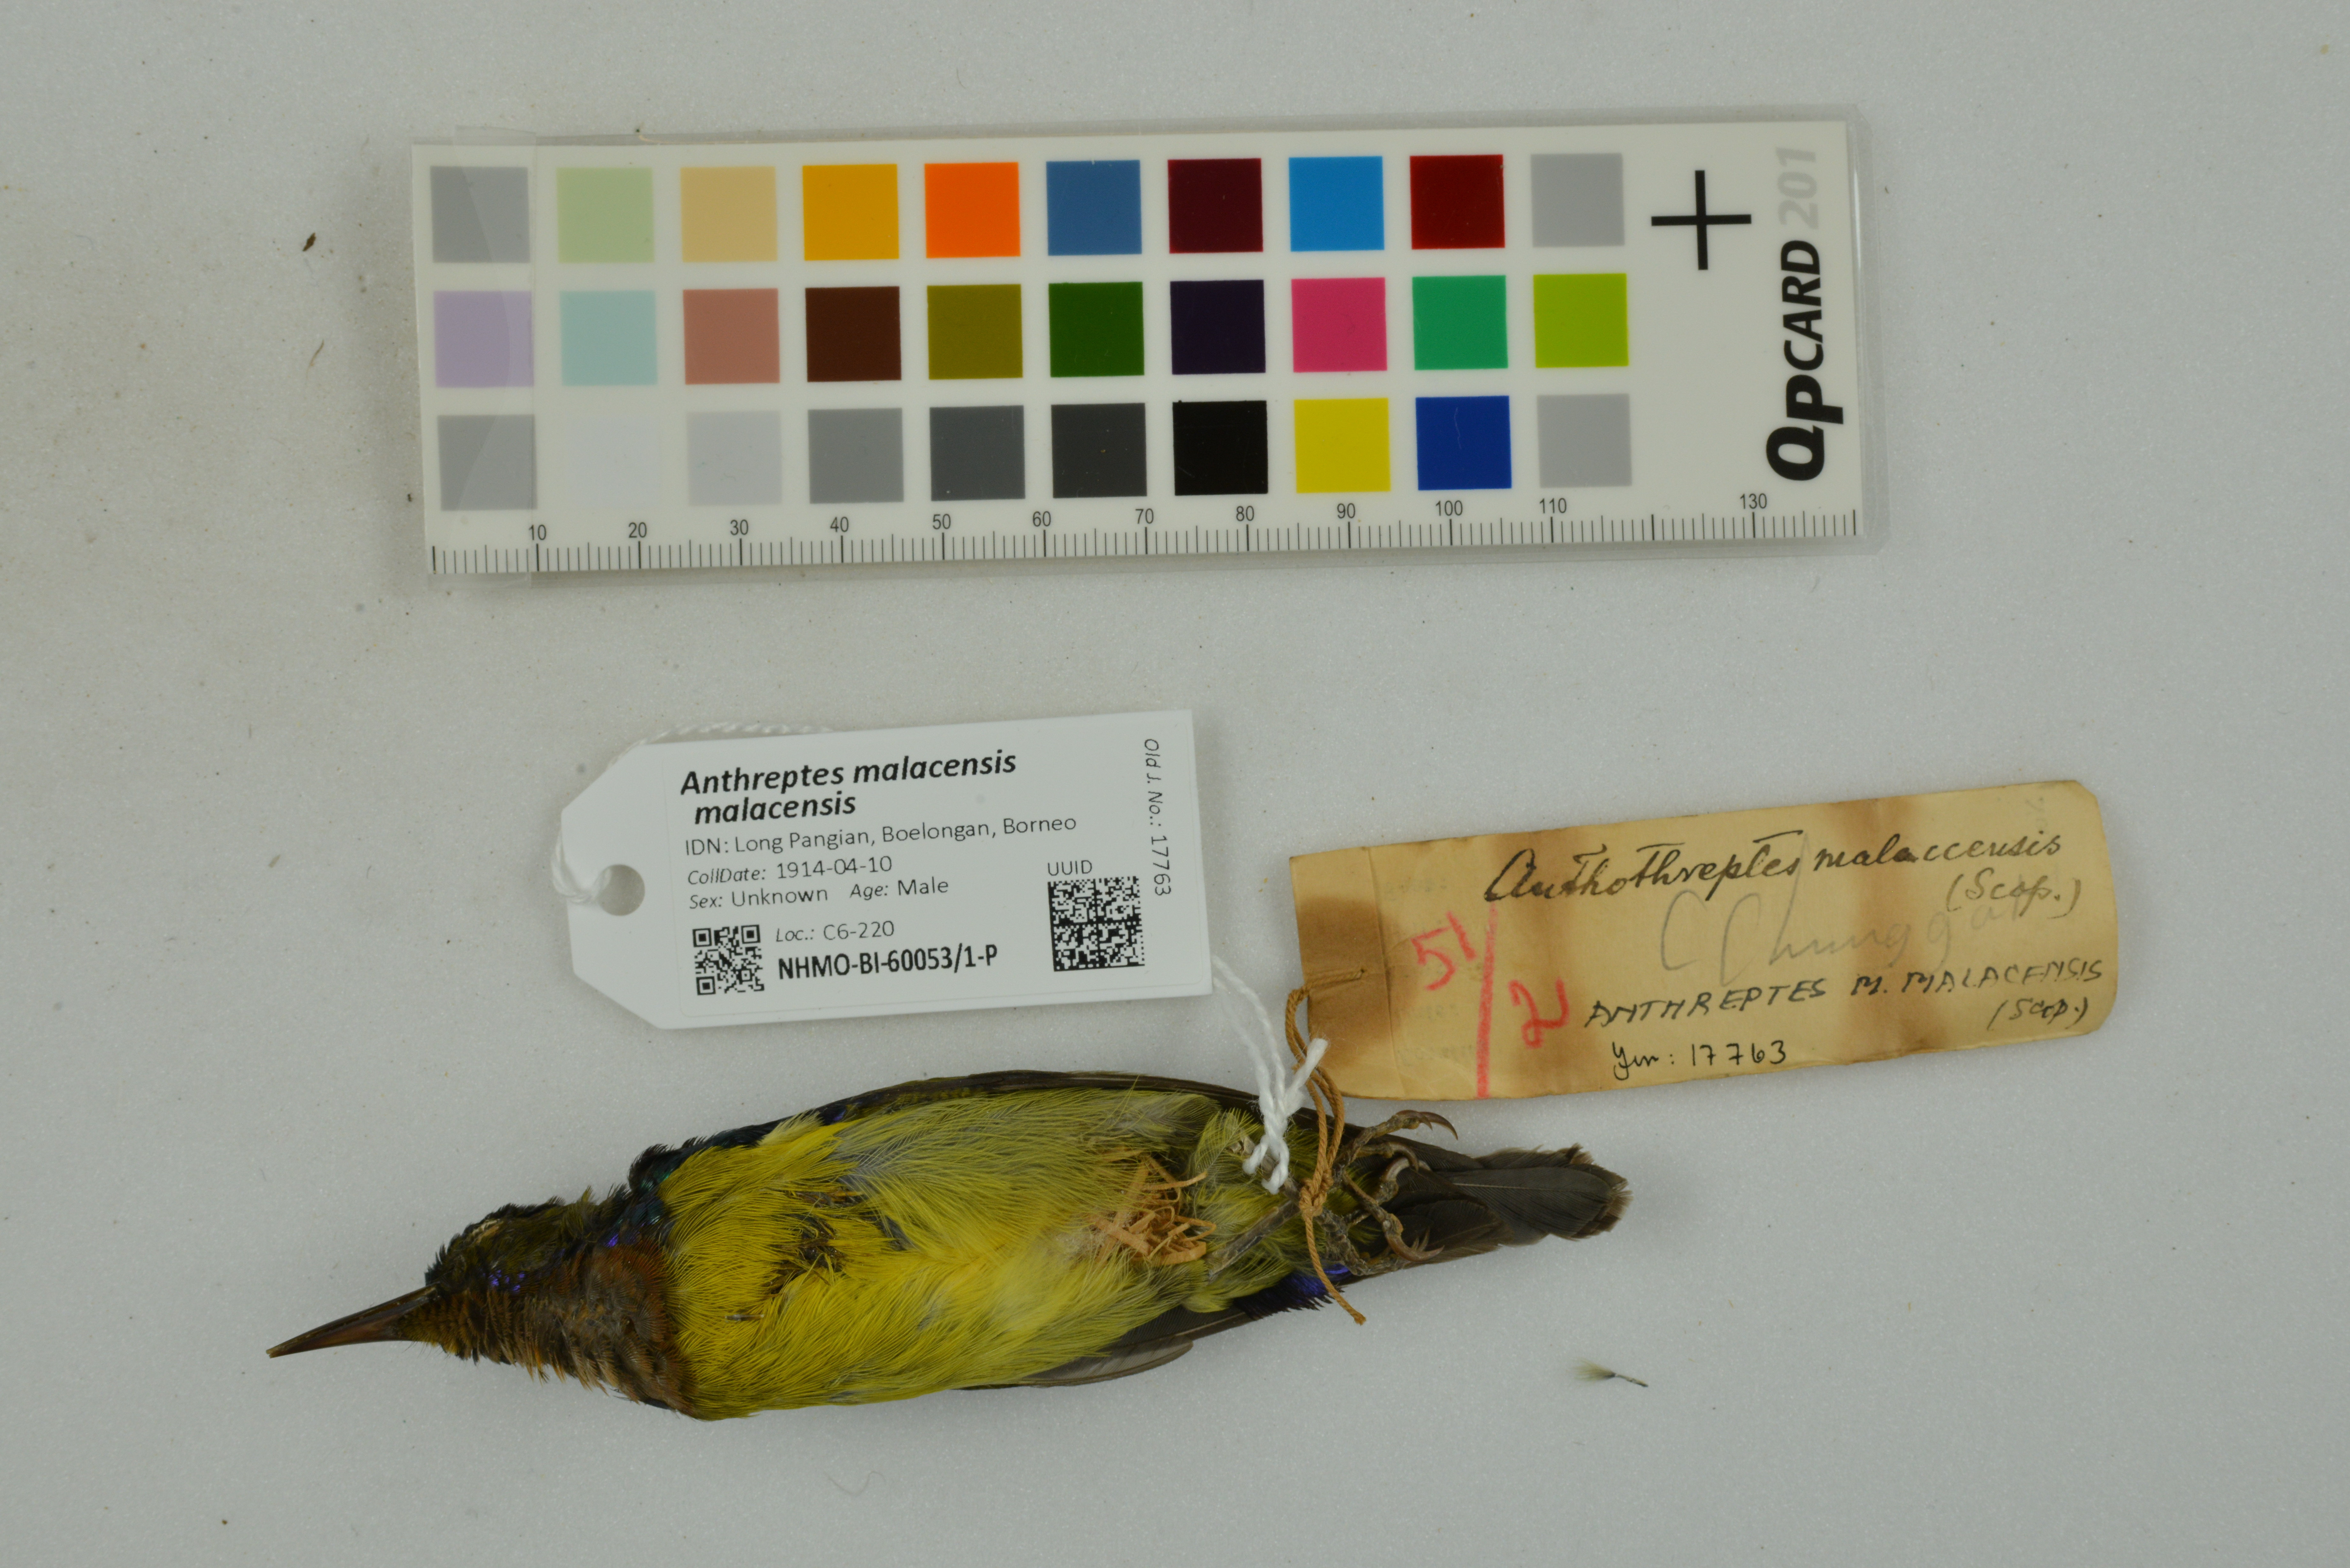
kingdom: Animalia
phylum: Chordata
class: Aves
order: Passeriformes
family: Nectariniidae
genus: Anthreptes
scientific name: Anthreptes malacensis
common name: Brown-throated sunbird
